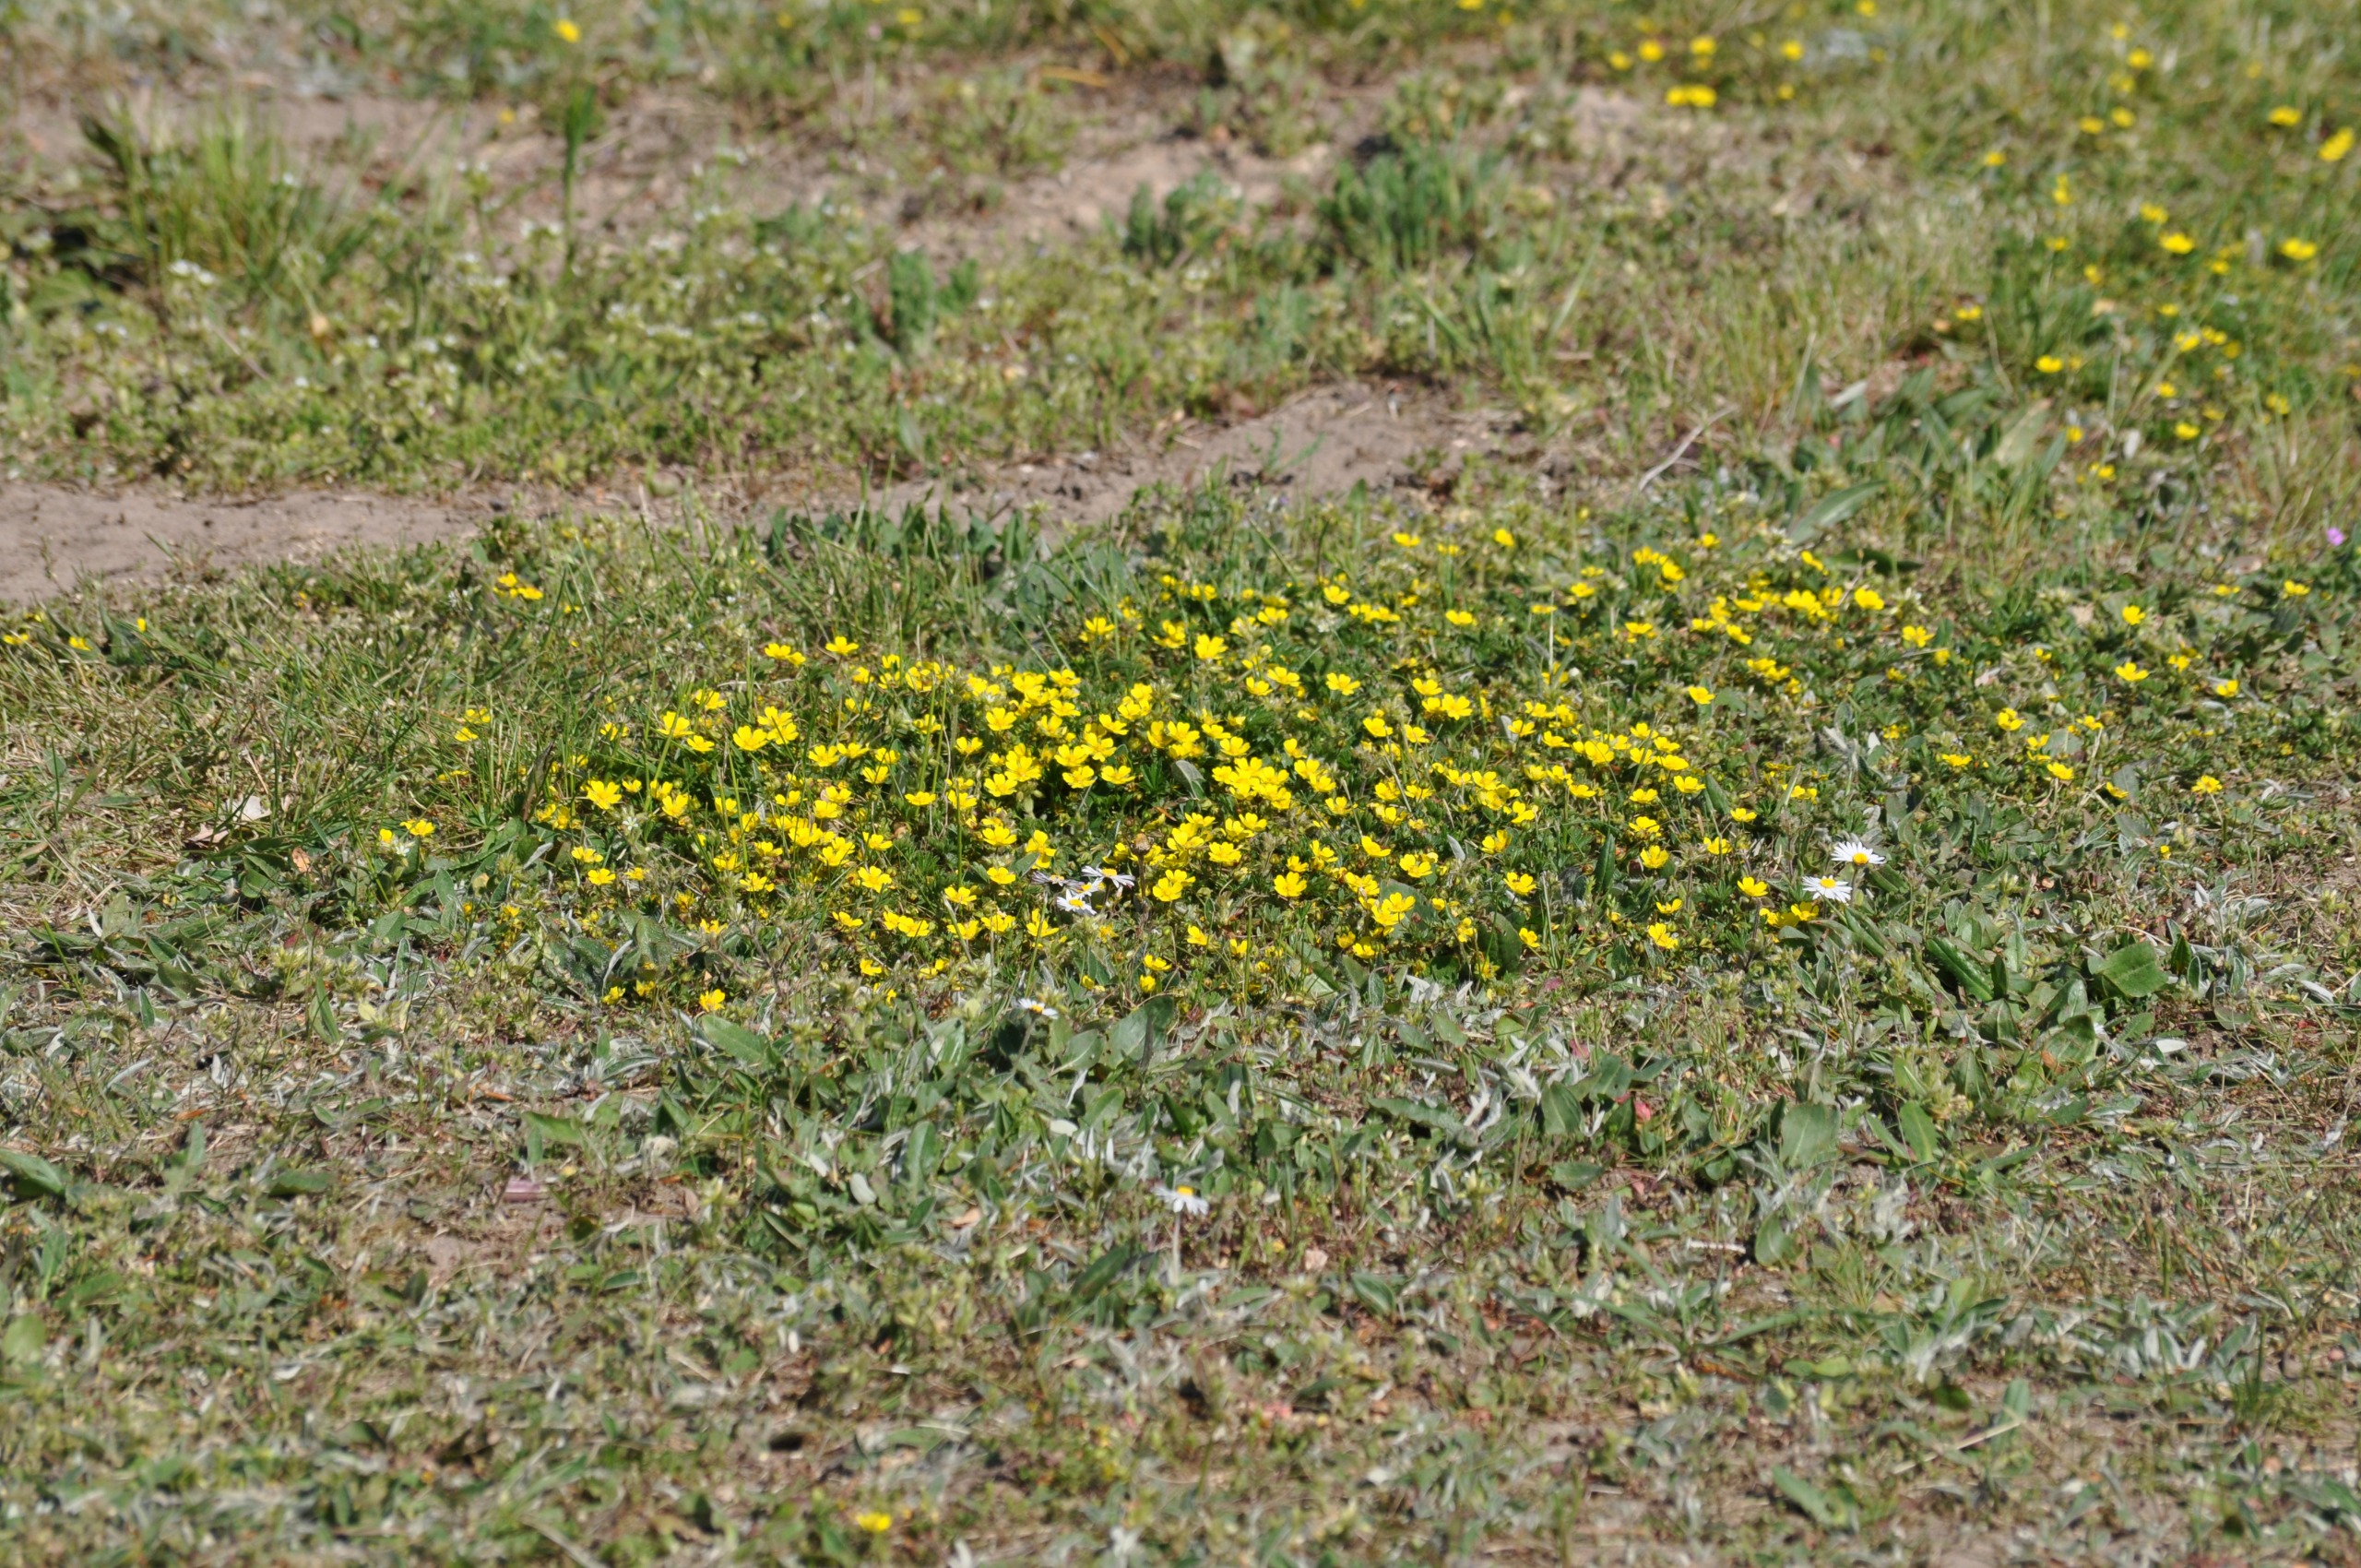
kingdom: Plantae
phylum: Tracheophyta
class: Magnoliopsida
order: Rosales
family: Rosaceae
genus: Potentilla
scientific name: Potentilla verna
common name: Vår-potentil
